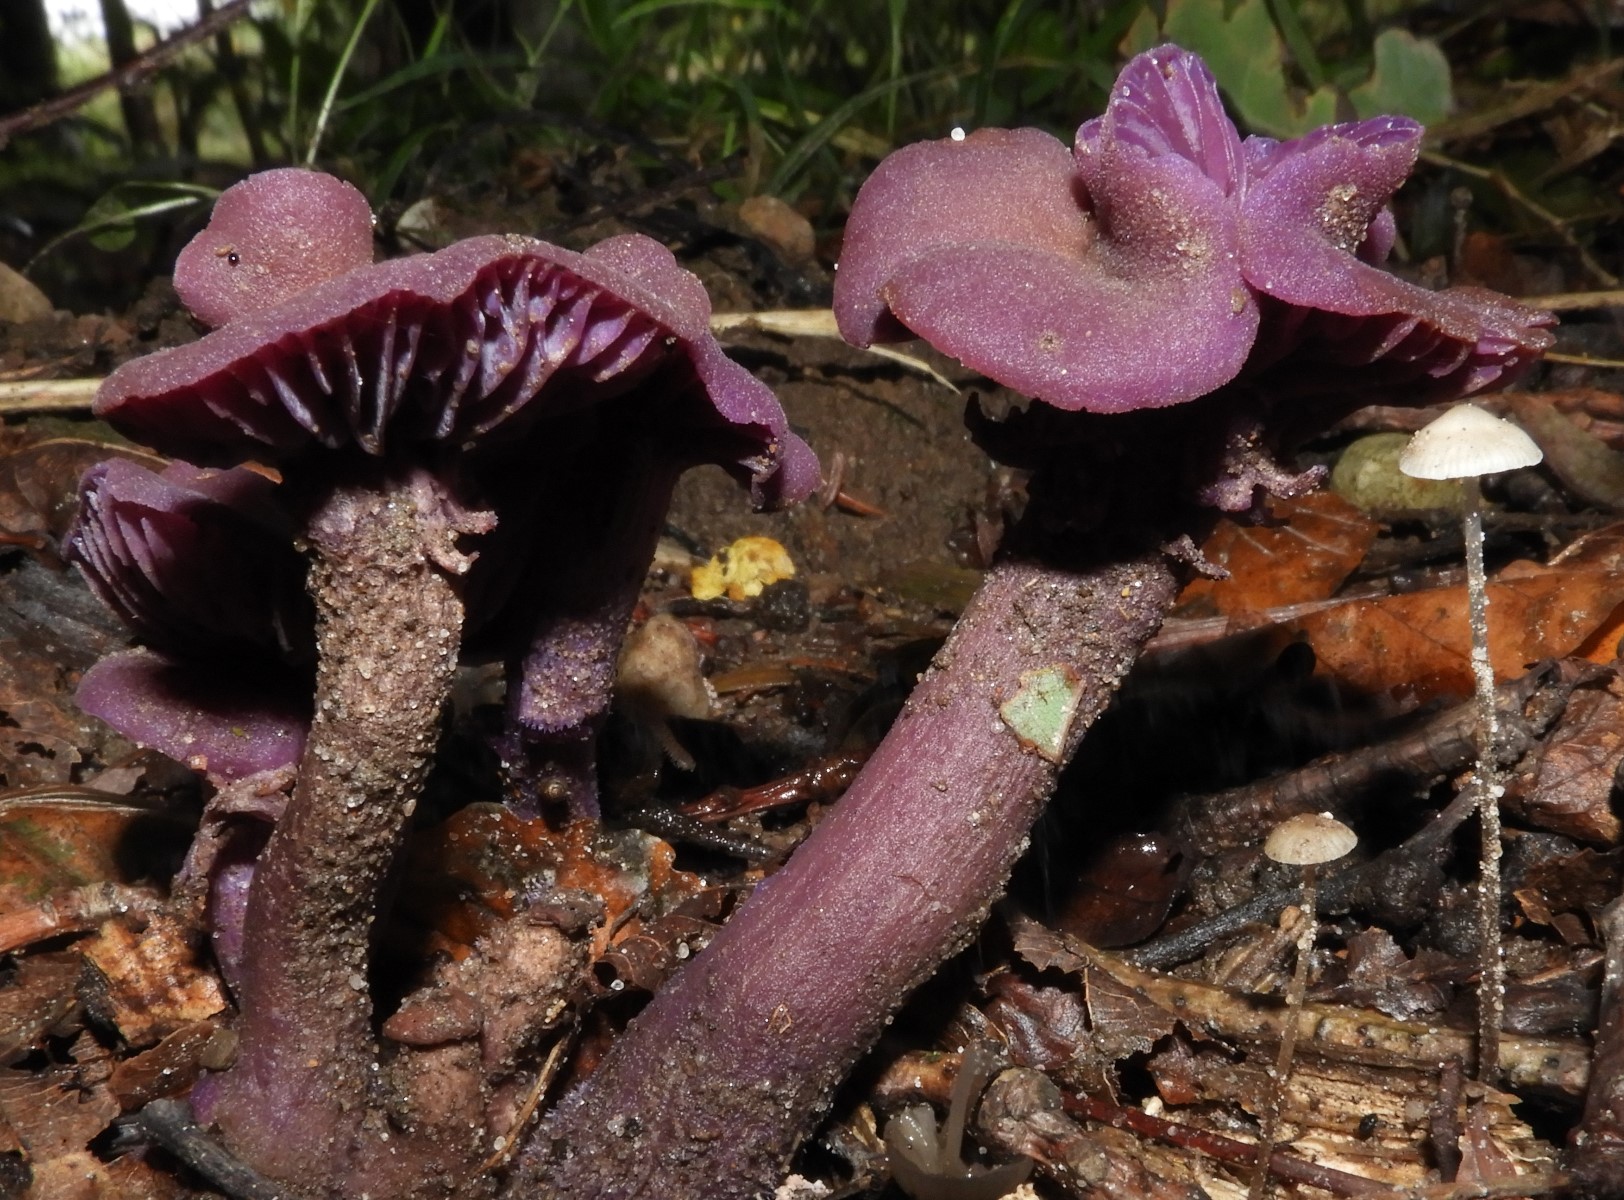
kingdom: Fungi
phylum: Basidiomycota
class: Agaricomycetes
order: Agaricales
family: Hydnangiaceae
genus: Laccaria
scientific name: Laccaria amethystina
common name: violet ametysthat
